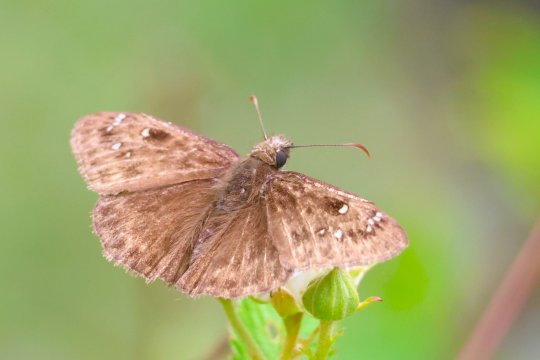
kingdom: Animalia
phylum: Arthropoda
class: Insecta
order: Lepidoptera
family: Hesperiidae
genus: Gesta
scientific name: Gesta
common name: Horace's Duskywing
